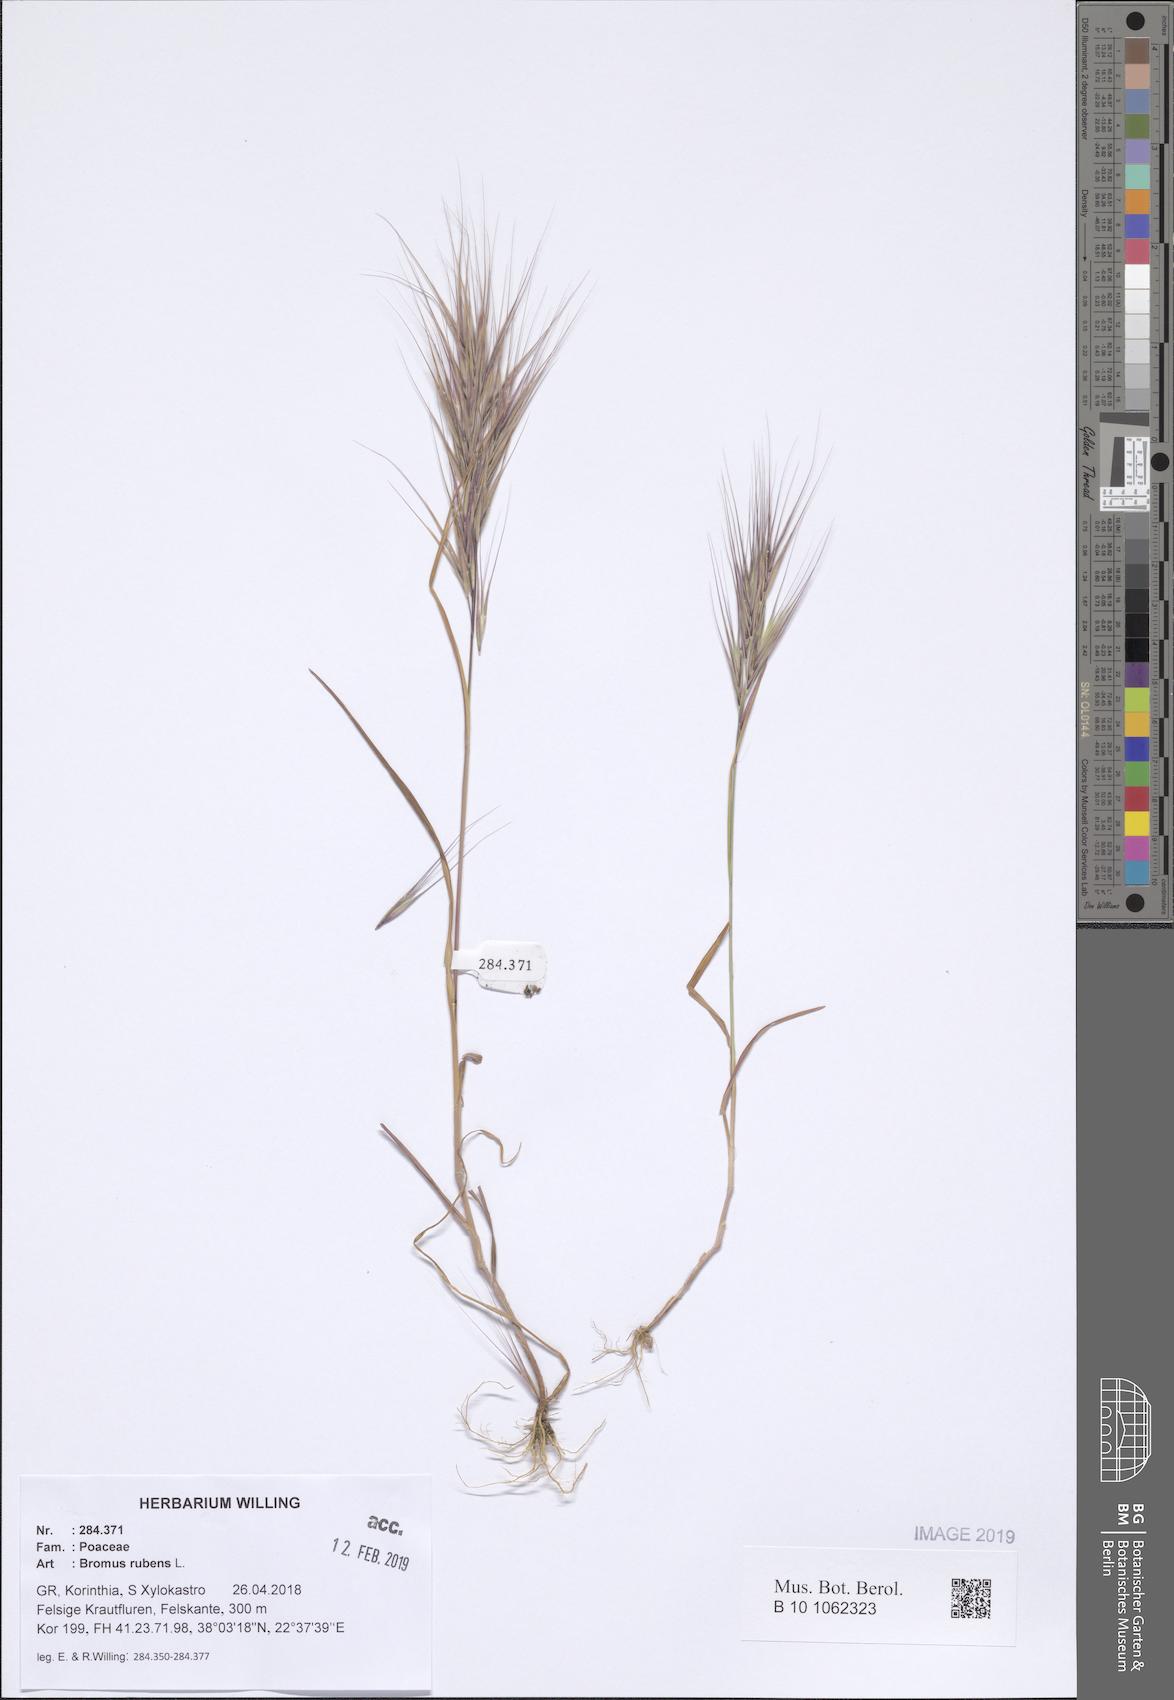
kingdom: Plantae
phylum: Tracheophyta
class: Liliopsida
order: Poales
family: Poaceae
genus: Bromus
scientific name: Bromus rubens
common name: Red brome
